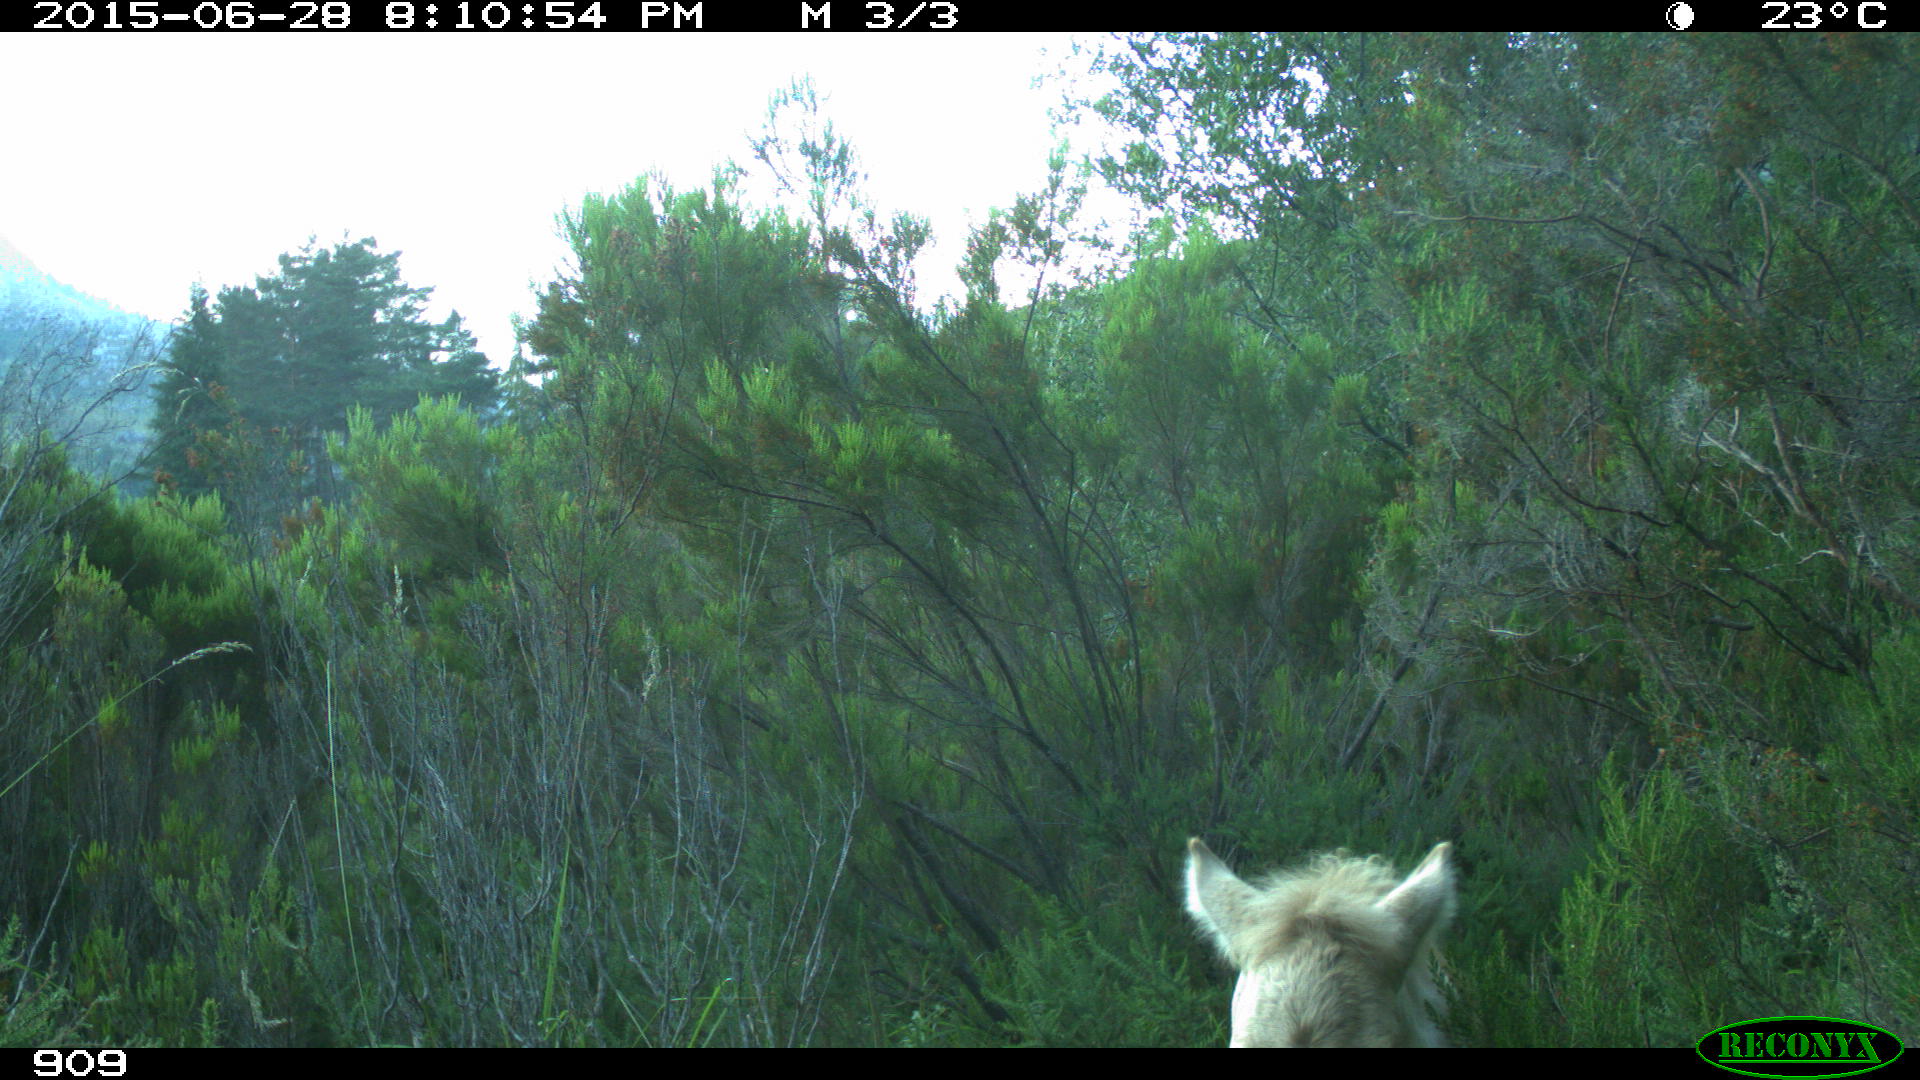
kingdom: Animalia
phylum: Chordata
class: Mammalia
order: Perissodactyla
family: Equidae
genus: Equus
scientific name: Equus caballus
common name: Horse
